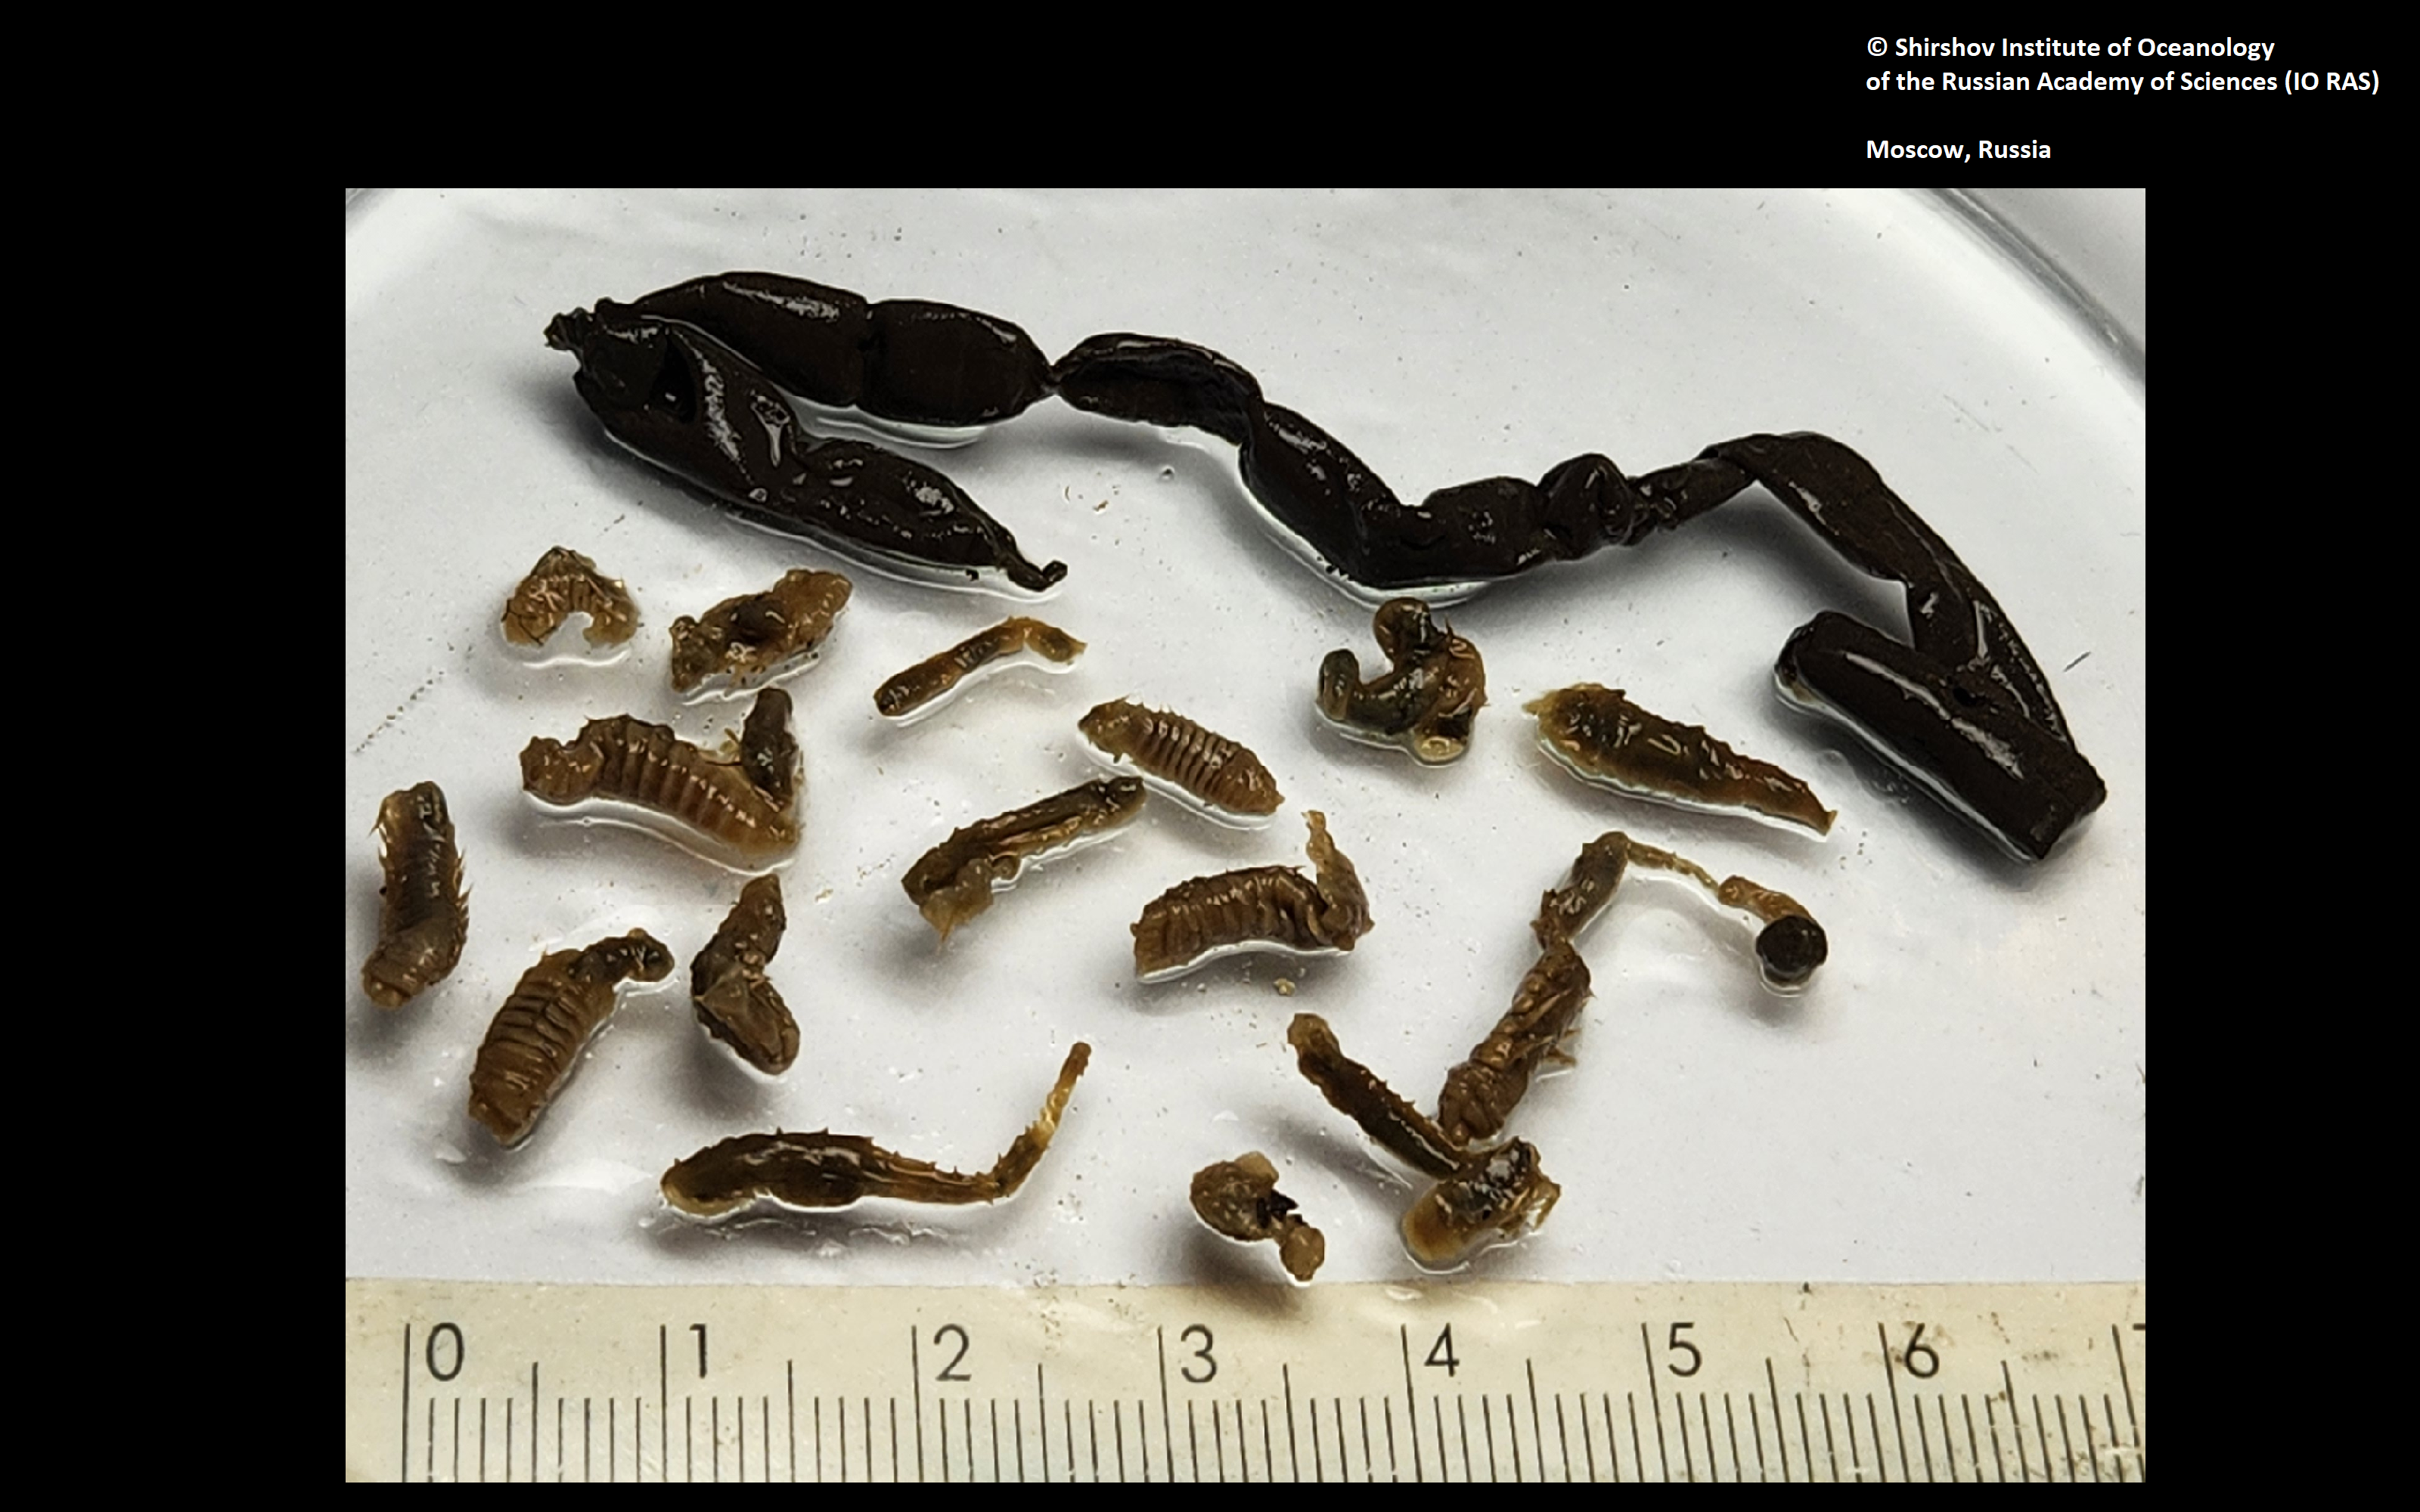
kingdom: Animalia
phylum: Annelida
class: Polychaeta
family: Ampharetidae
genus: Grubianella
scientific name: Grubianella cirratus
